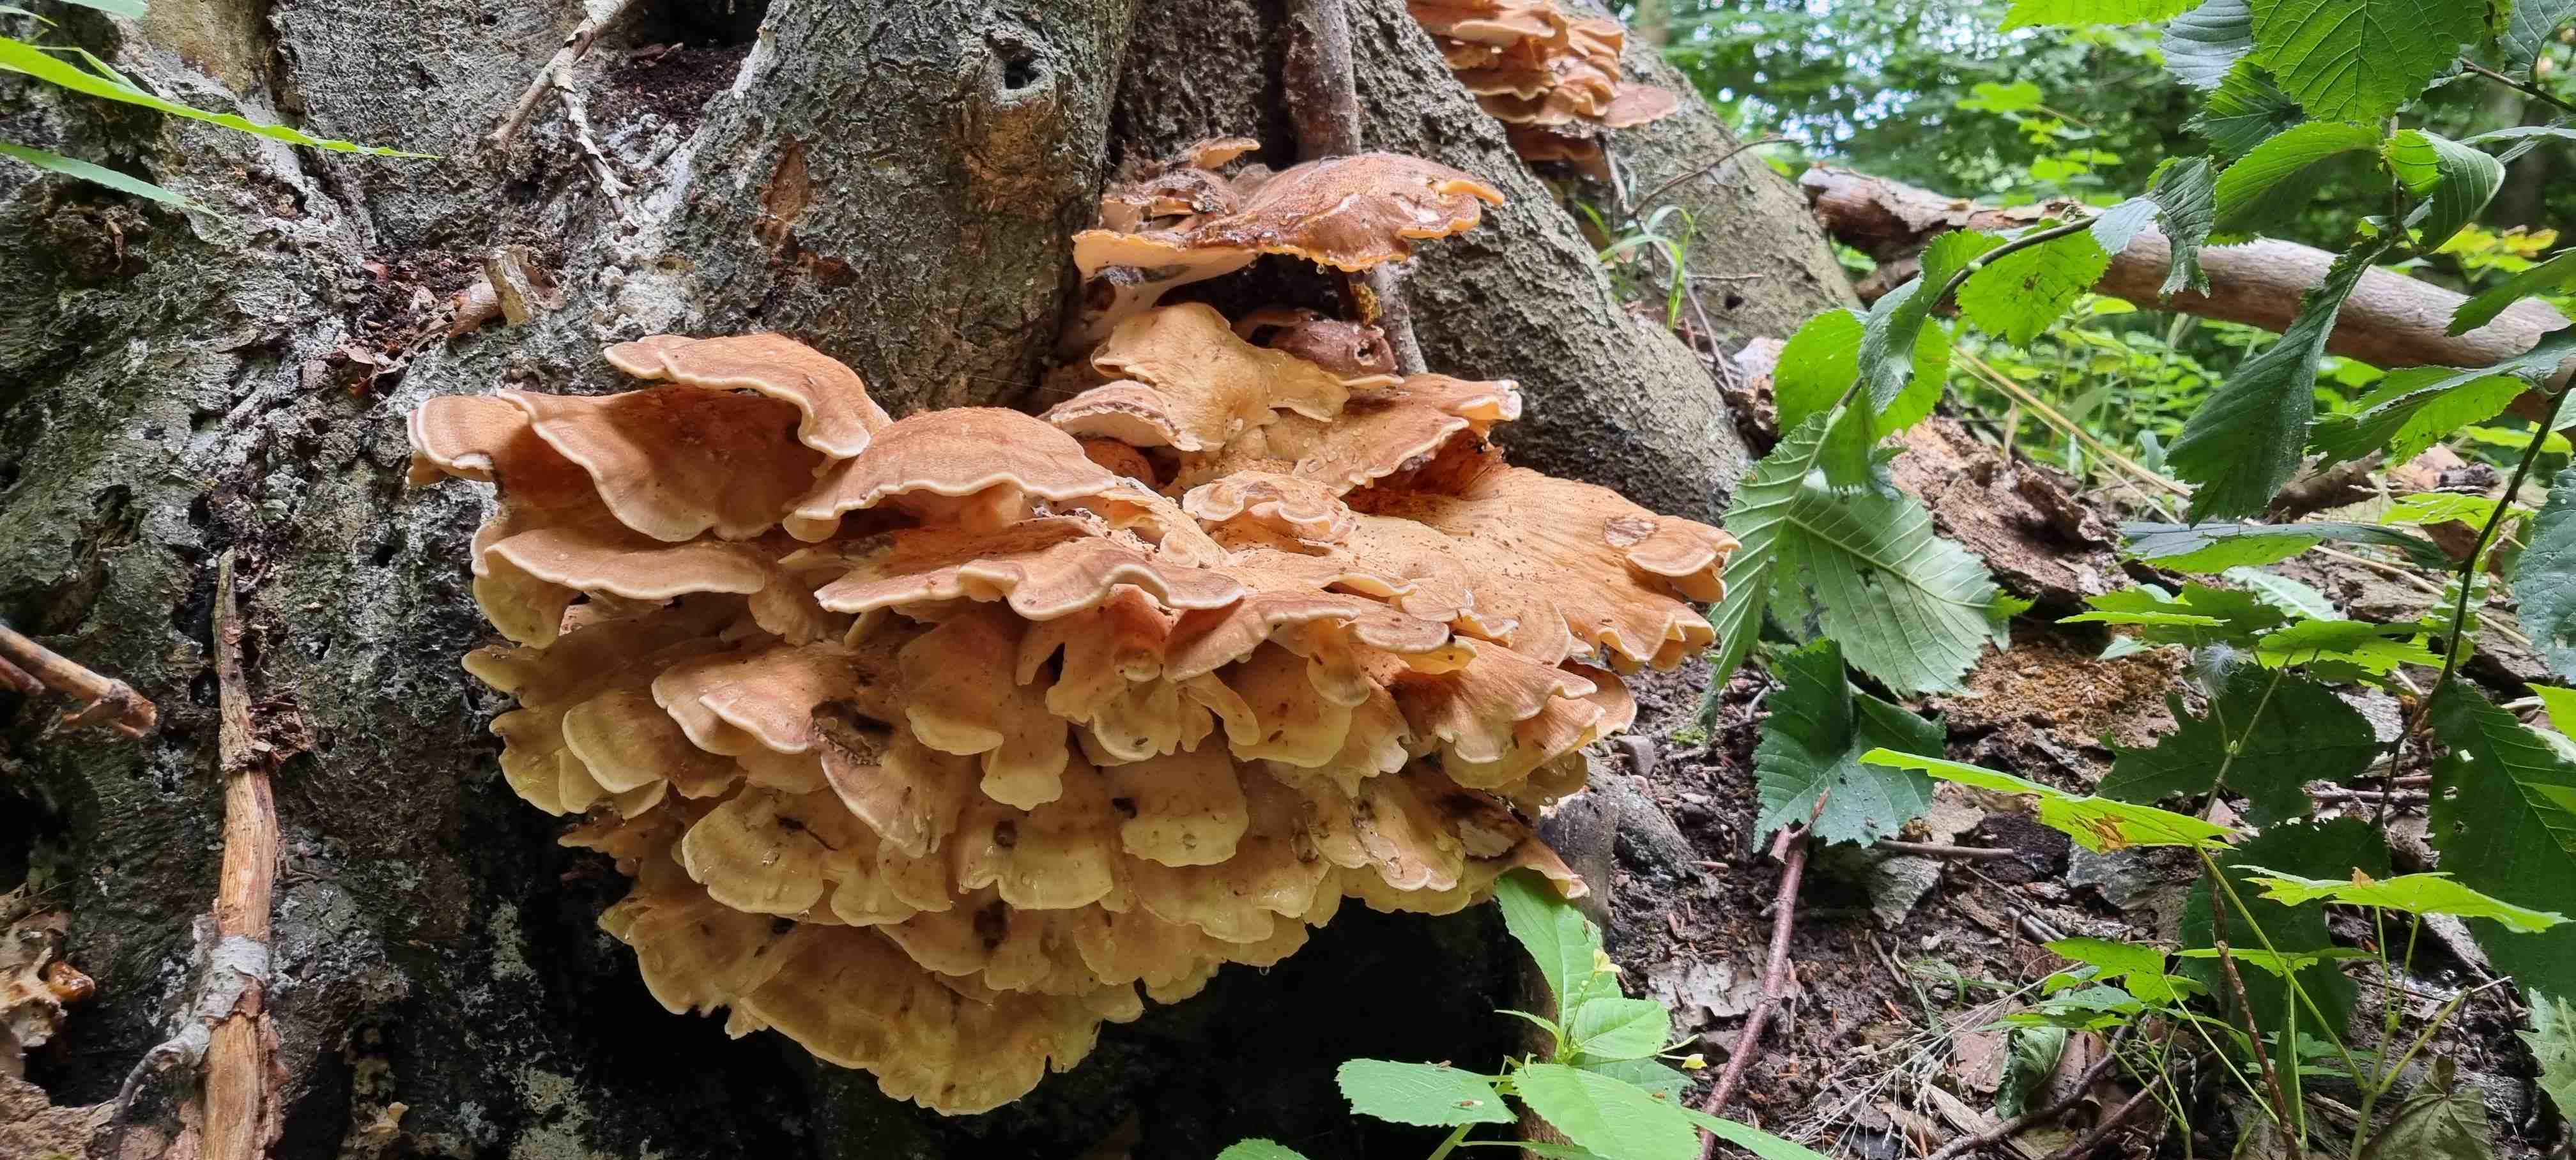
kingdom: Fungi
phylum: Basidiomycota
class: Agaricomycetes
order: Polyporales
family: Meripilaceae
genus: Meripilus
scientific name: Meripilus giganteus
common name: kæmpeporesvamp
